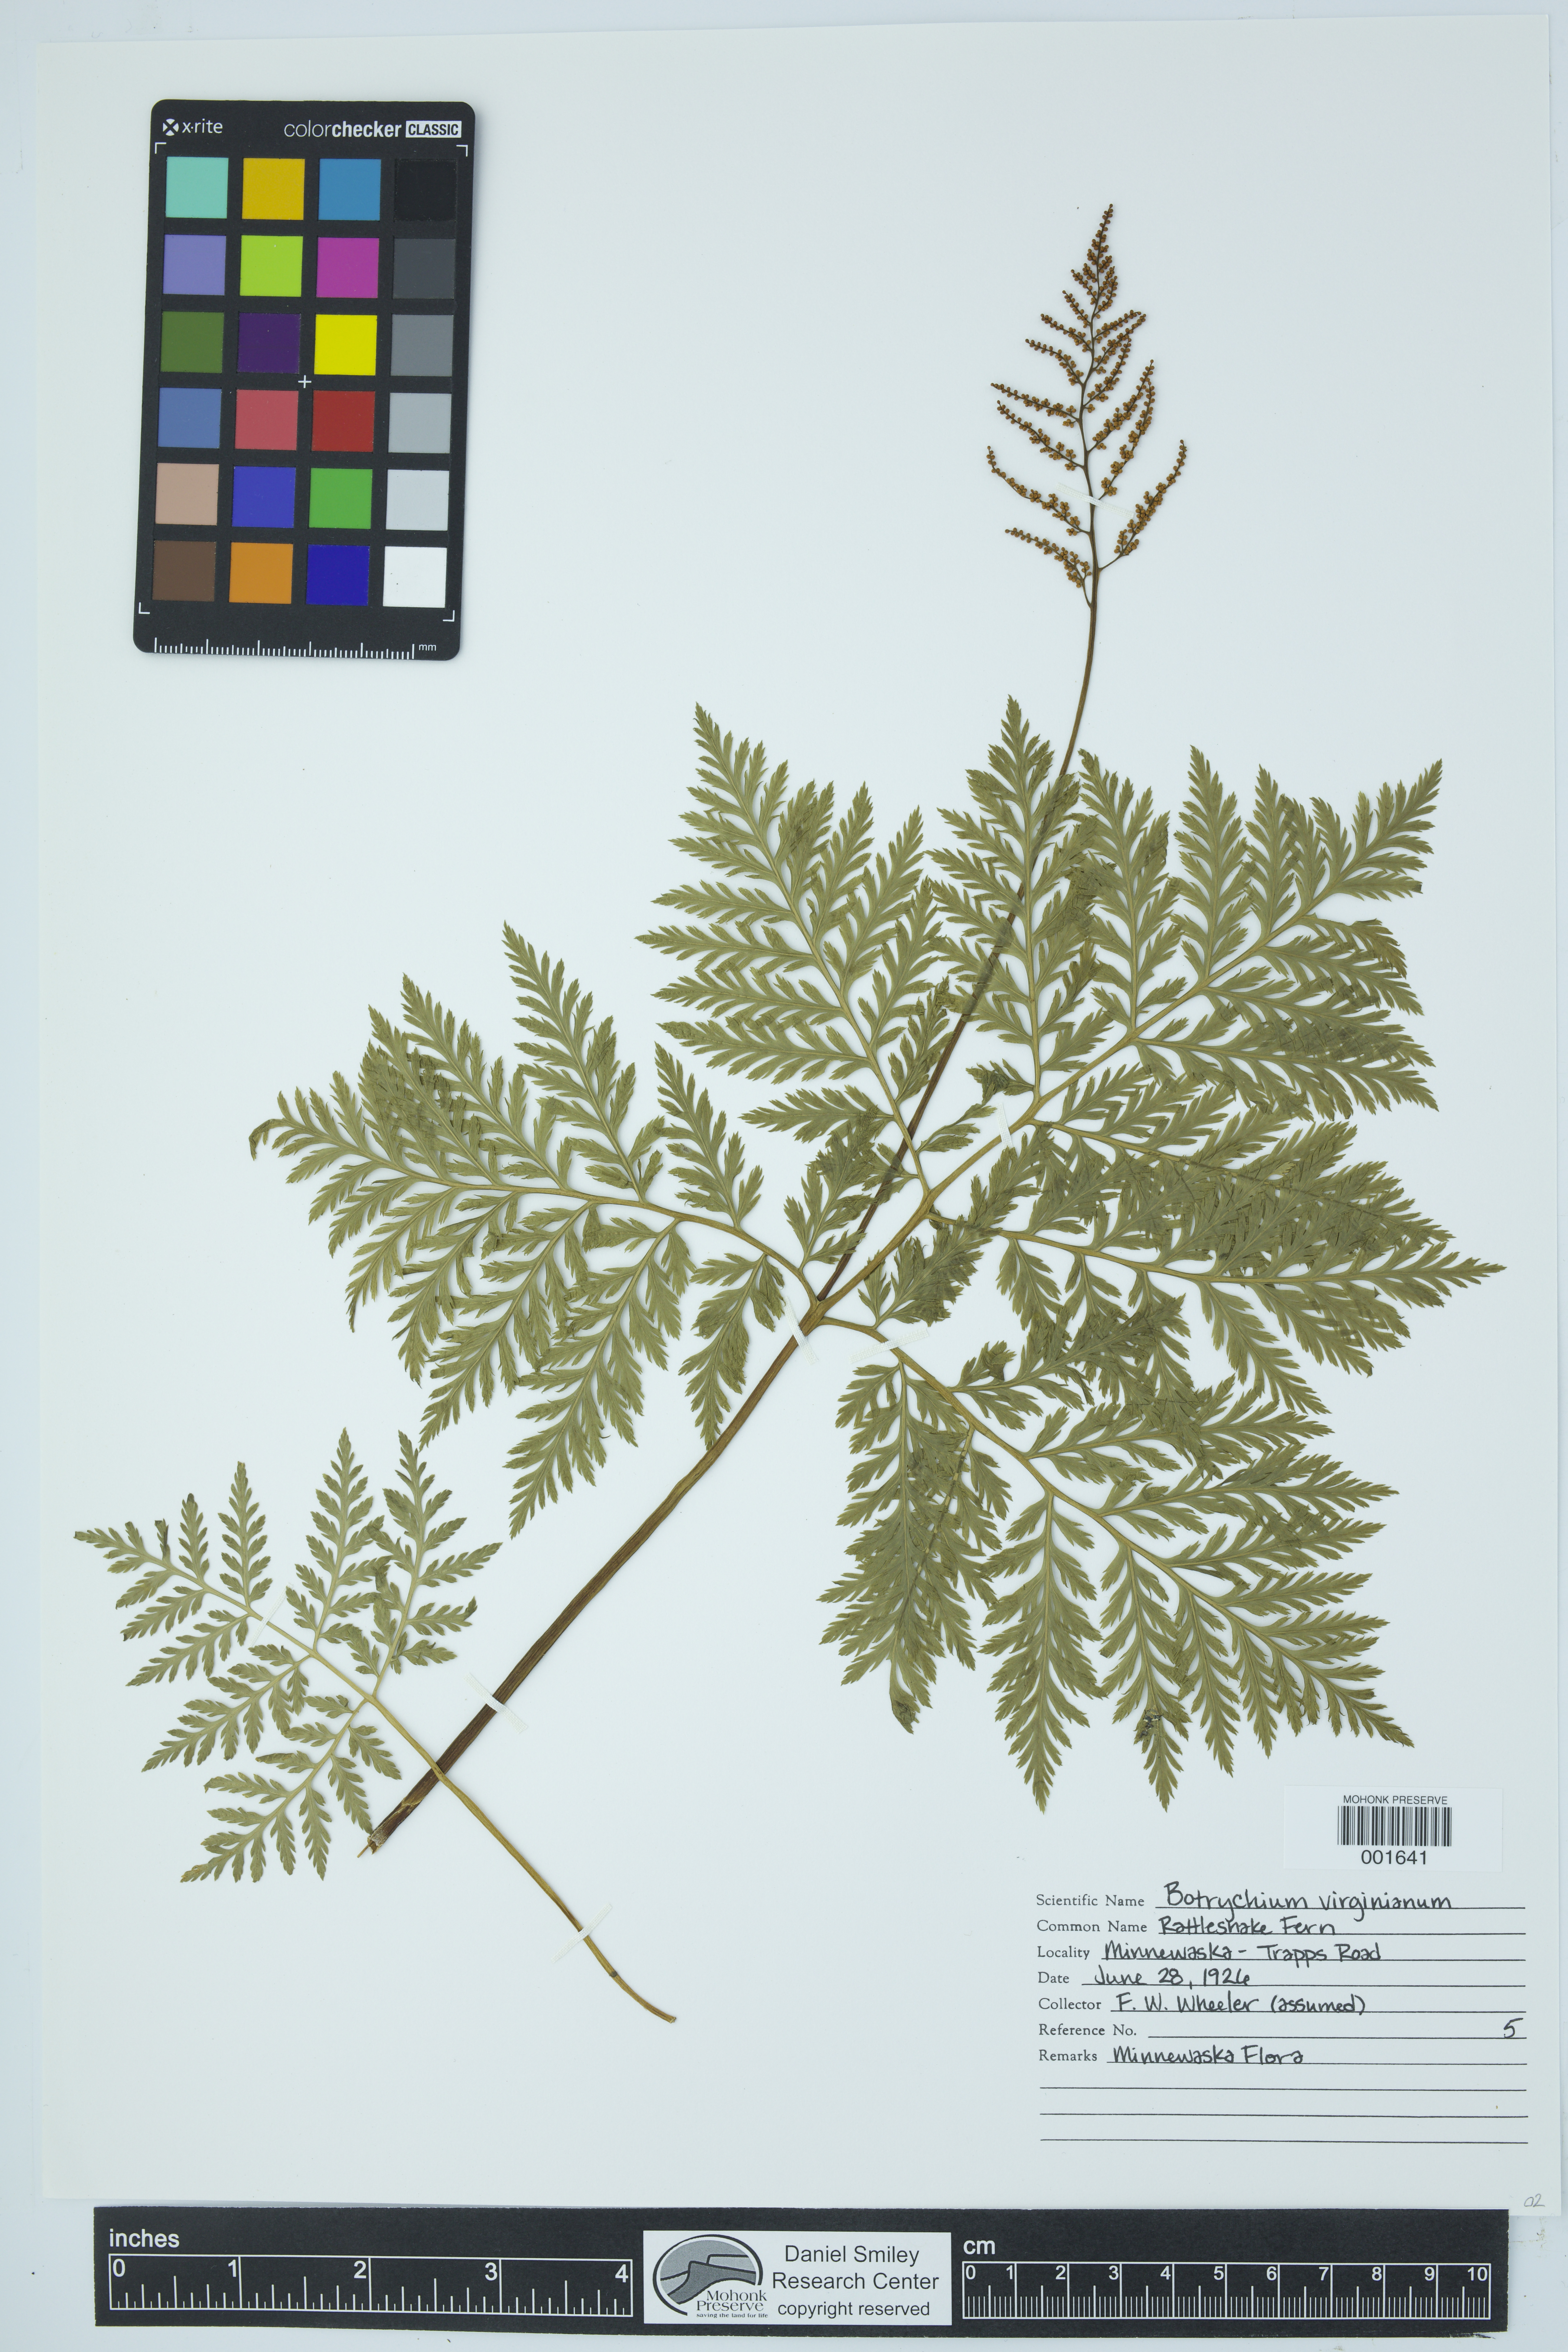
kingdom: Plantae
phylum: Tracheophyta
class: Polypodiopsida
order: Ophioglossales
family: Ophioglossaceae
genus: Botrypus
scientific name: Botrypus virginianus
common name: Common grapefern
